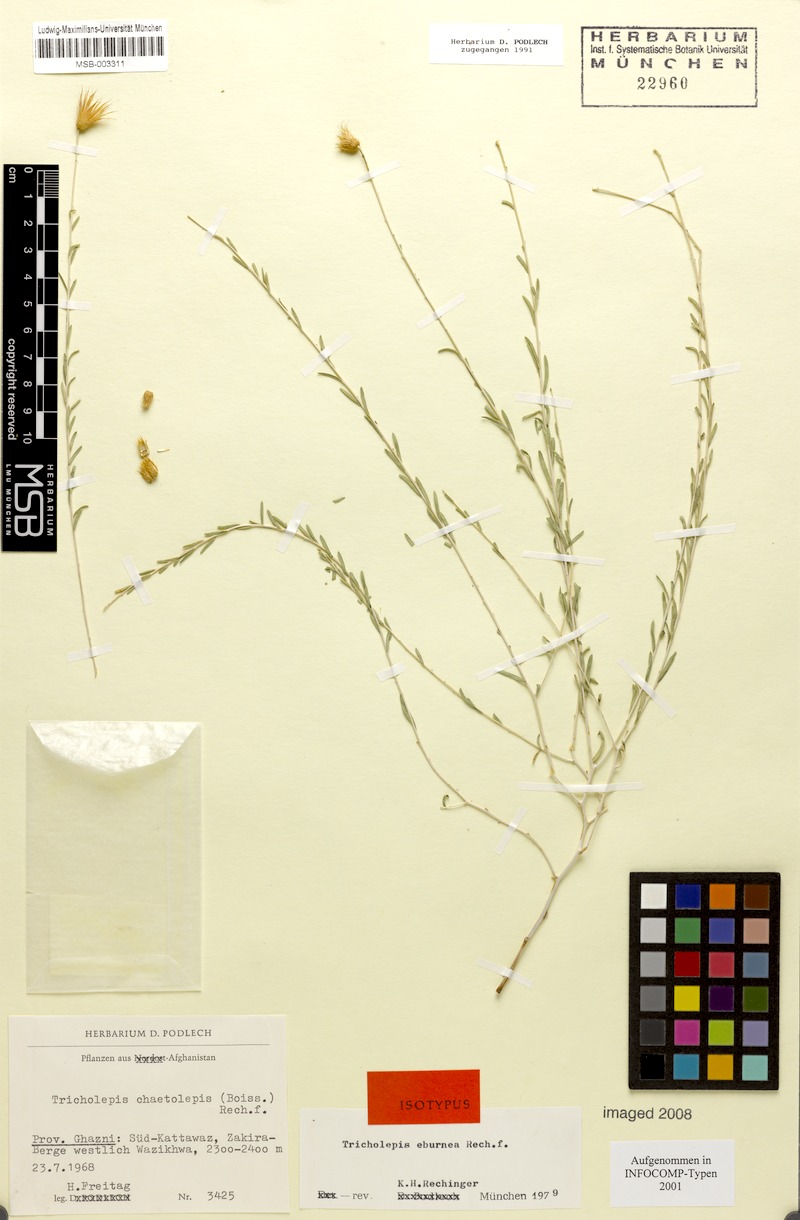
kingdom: Plantae
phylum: Tracheophyta
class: Magnoliopsida
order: Asterales
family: Asteraceae
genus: Tricholepis
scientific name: Tricholepis chaetolepis
